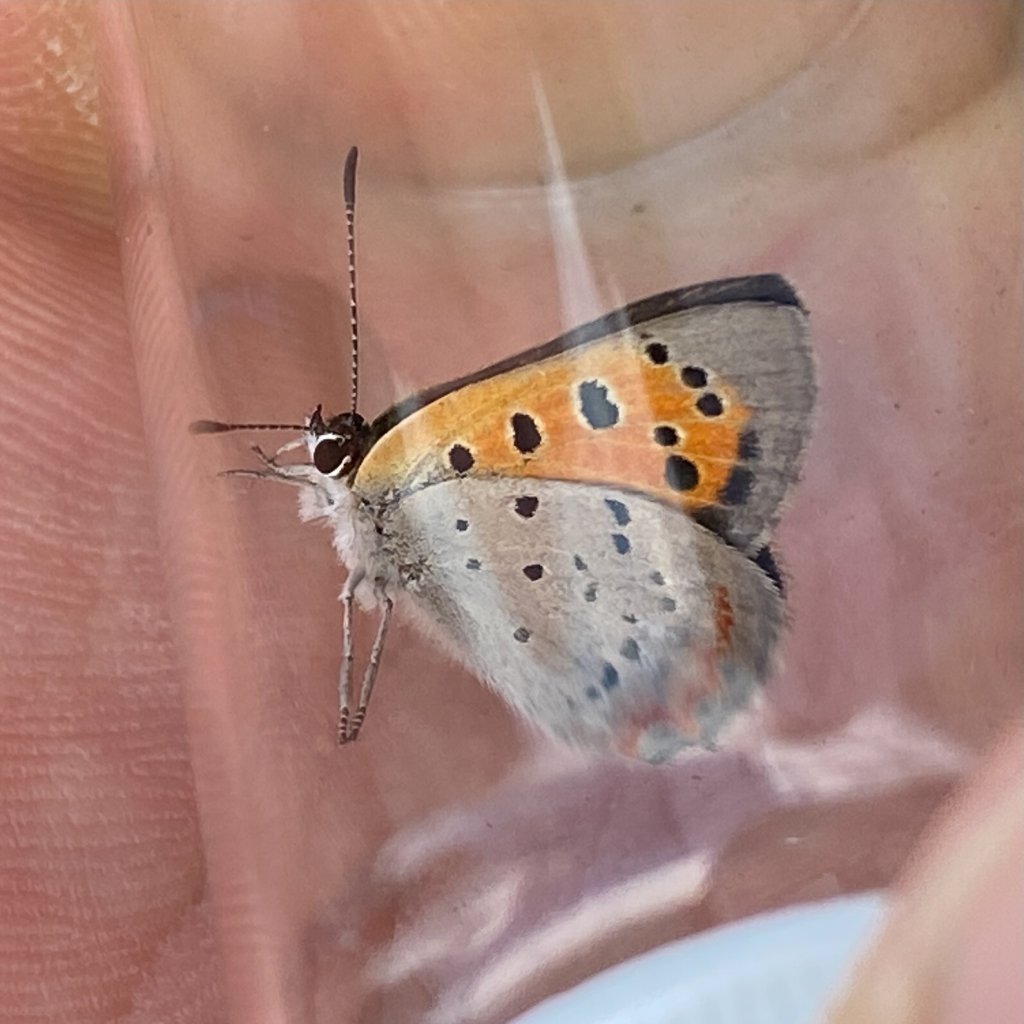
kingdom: Animalia
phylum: Arthropoda
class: Insecta
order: Lepidoptera
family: Lycaenidae
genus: Lycaena
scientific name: Lycaena phlaeas
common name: American Copper
